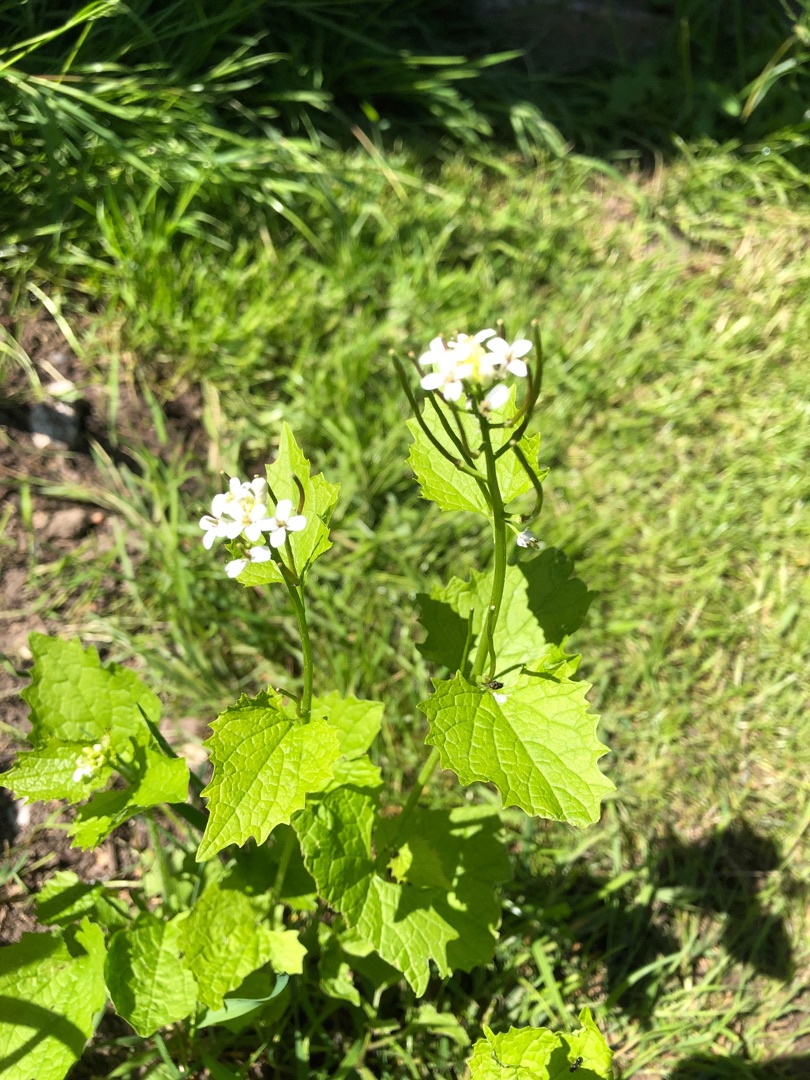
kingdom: Plantae
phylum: Tracheophyta
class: Magnoliopsida
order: Brassicales
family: Brassicaceae
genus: Alliaria
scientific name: Alliaria petiolata
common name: Løgkarse
